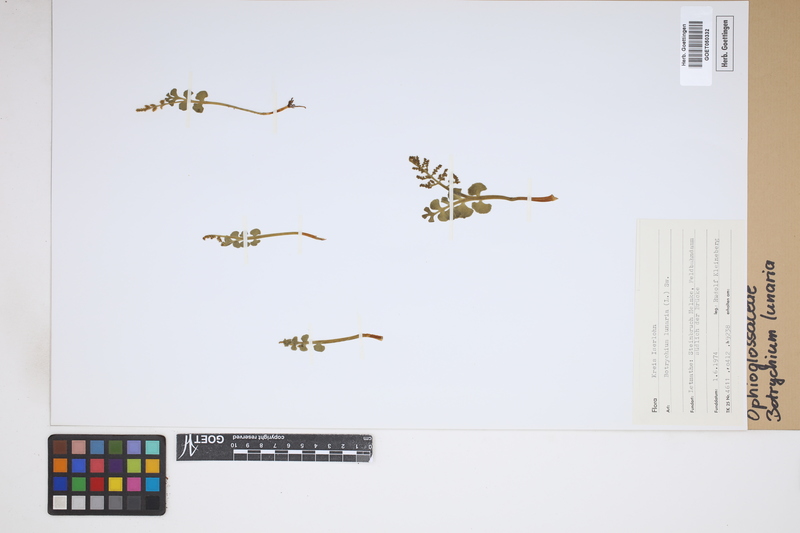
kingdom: Plantae
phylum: Tracheophyta
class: Polypodiopsida
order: Ophioglossales
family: Ophioglossaceae
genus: Botrychium
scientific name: Botrychium lunaria
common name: Moonwort
